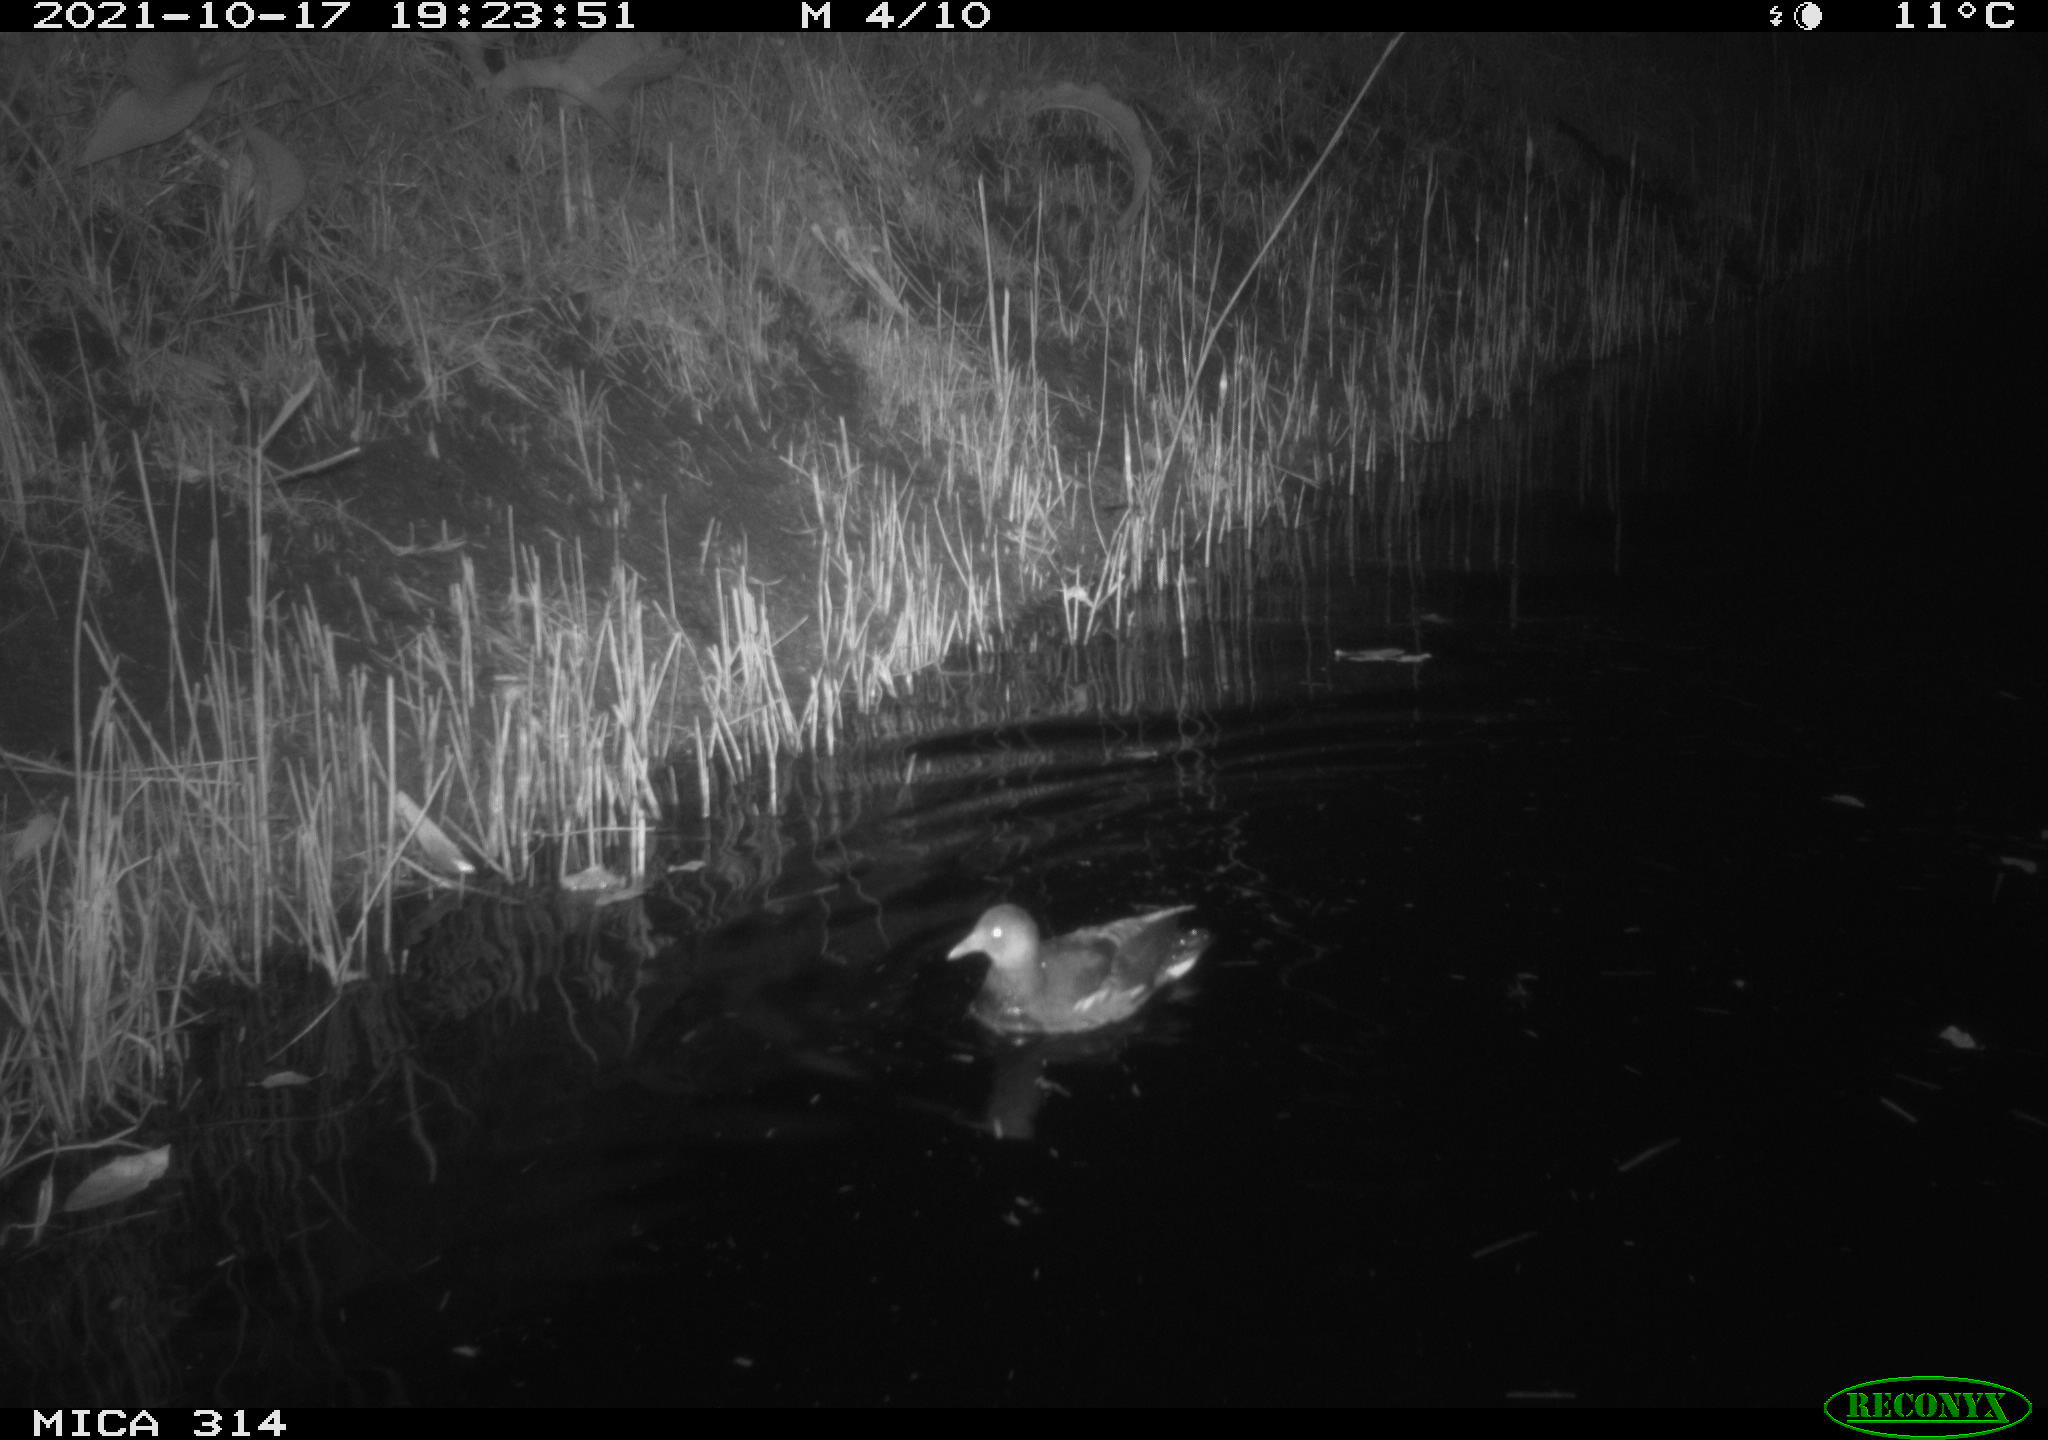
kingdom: Animalia
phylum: Chordata
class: Aves
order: Gruiformes
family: Rallidae
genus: Gallinula
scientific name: Gallinula chloropus
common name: Common moorhen
